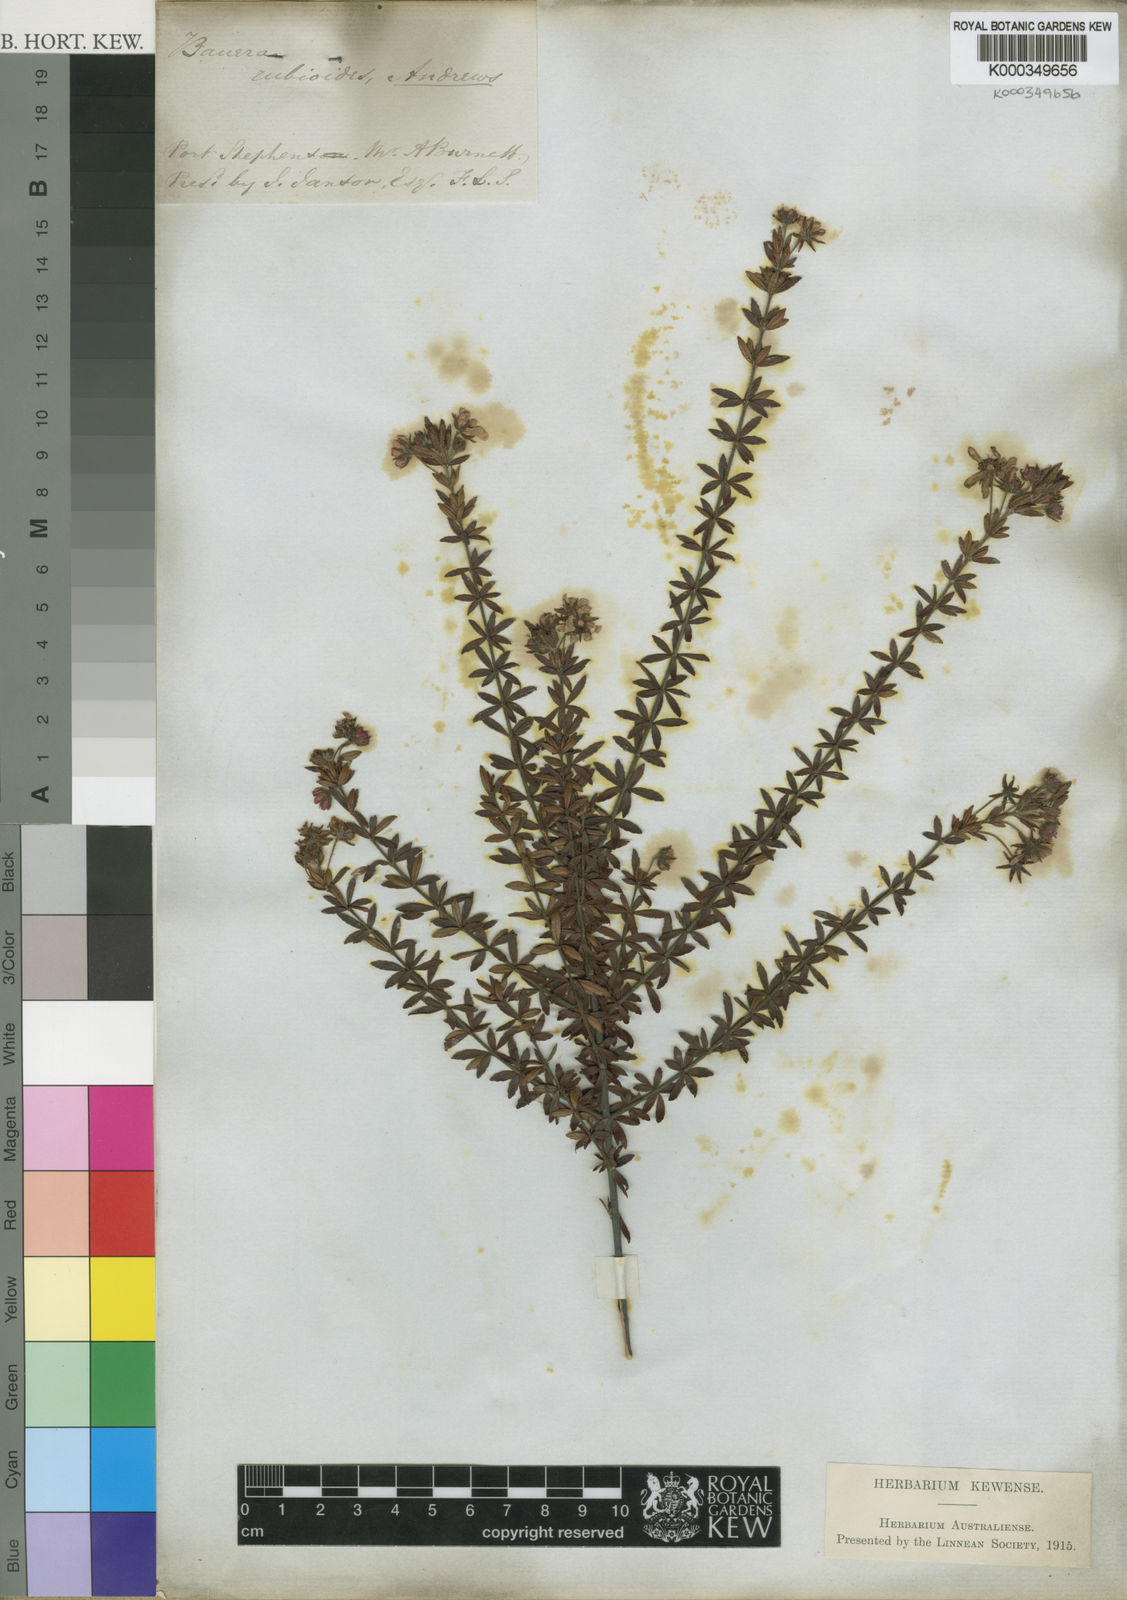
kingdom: Plantae
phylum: Tracheophyta
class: Magnoliopsida
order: Oxalidales
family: Cunoniaceae
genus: Bauera
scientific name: Bauera rubioides
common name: River-rose
